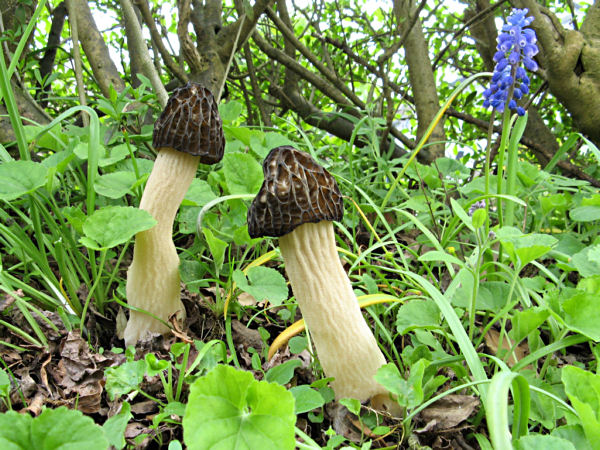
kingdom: Fungi
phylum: Ascomycota
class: Pezizomycetes
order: Pezizales
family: Morchellaceae
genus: Morchella
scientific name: Morchella semilibera
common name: hætte-morkel
